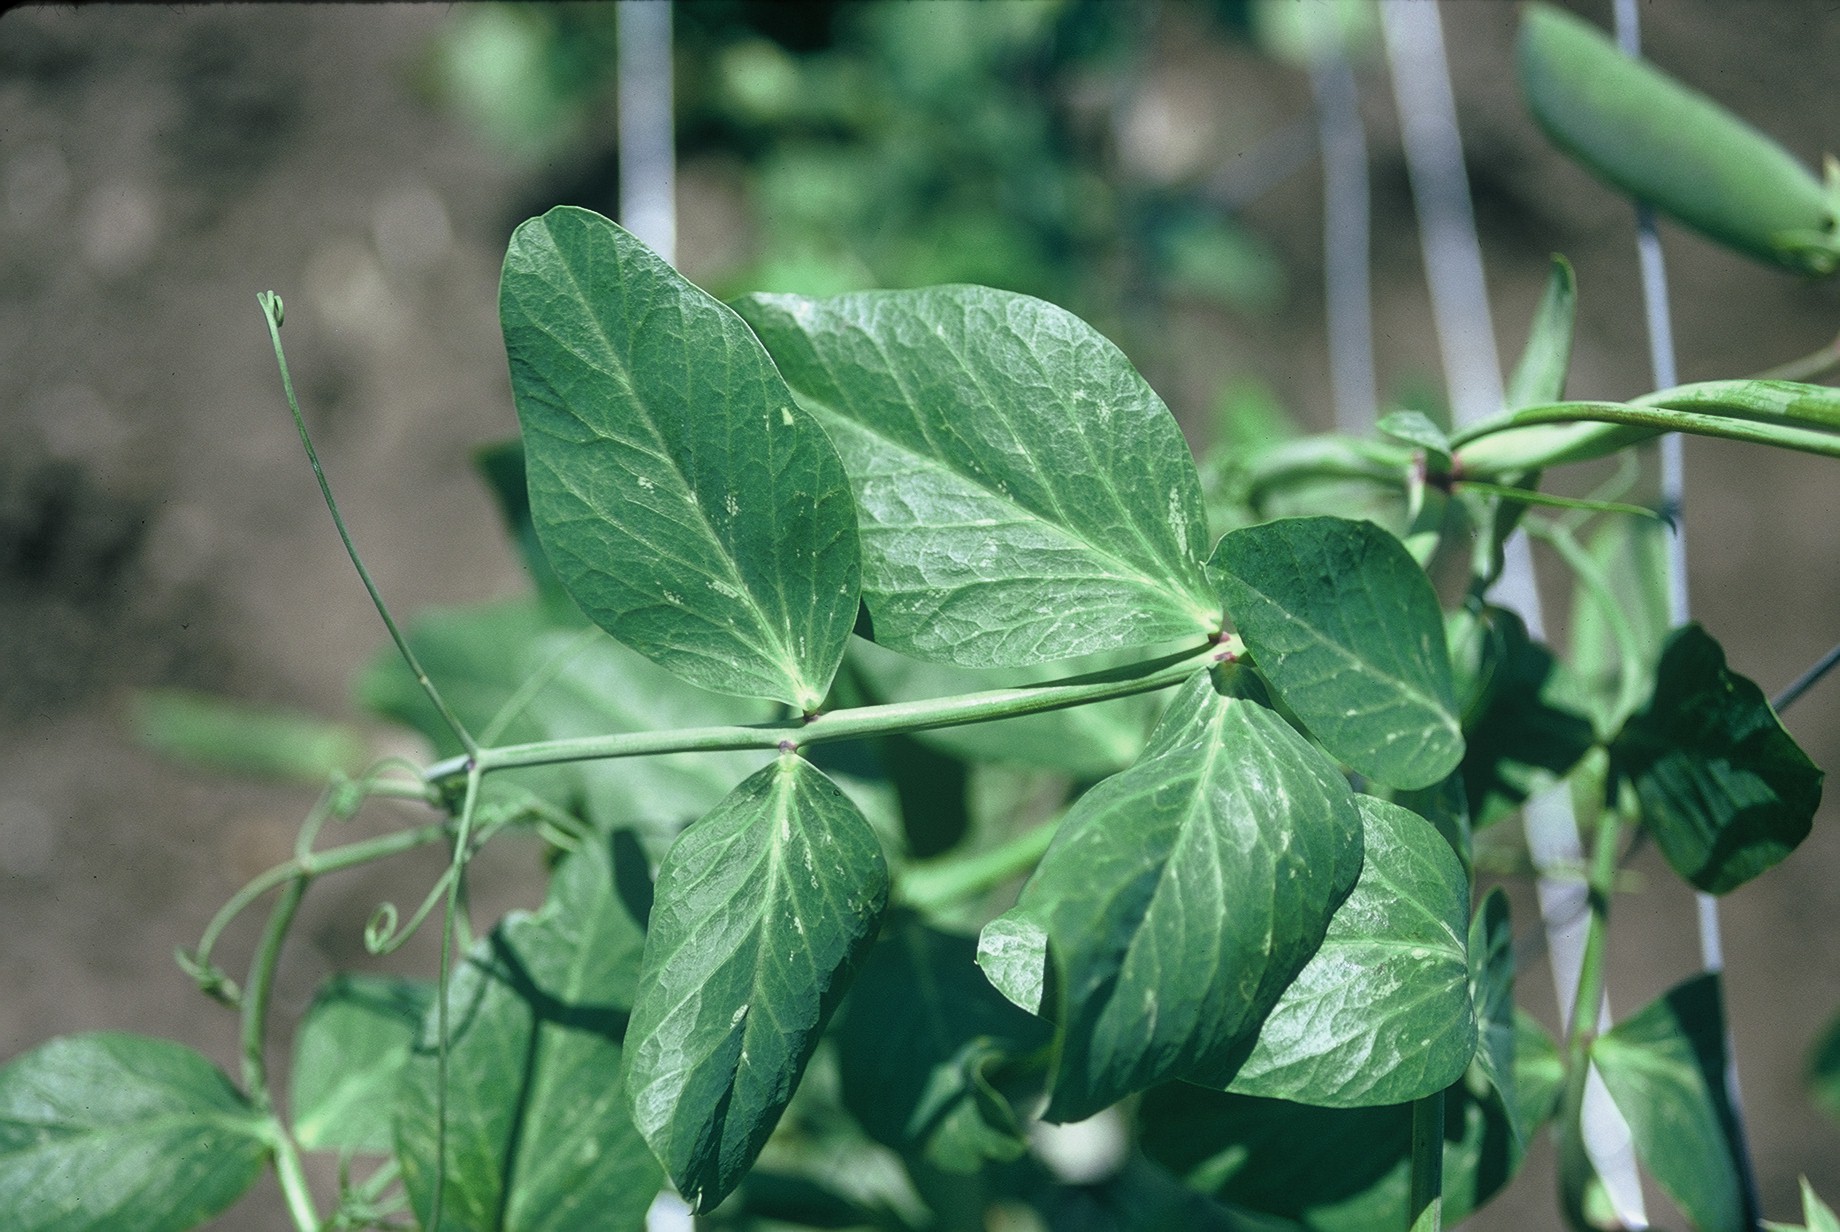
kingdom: Plantae
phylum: Tracheophyta
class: Magnoliopsida
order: Fabales
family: Fabaceae
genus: Lathyrus
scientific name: Lathyrus oleraceus
